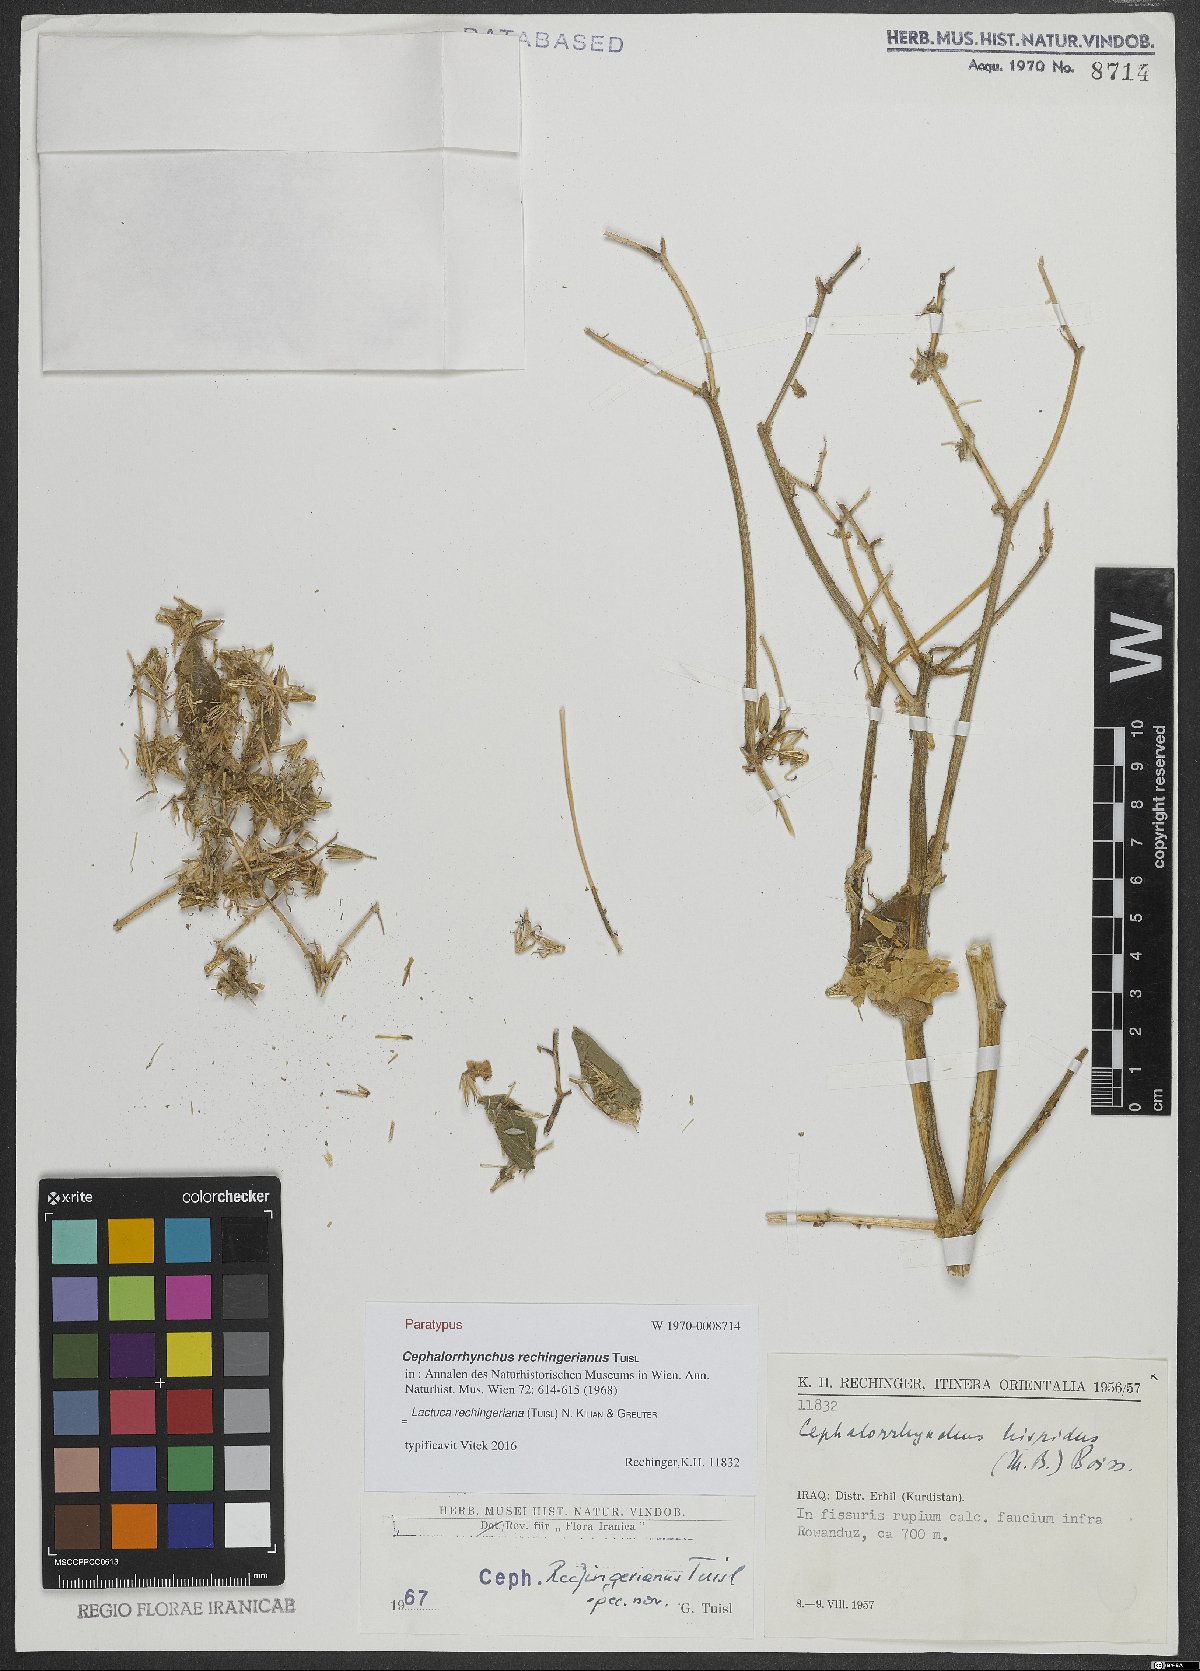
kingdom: Plantae
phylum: Tracheophyta
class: Magnoliopsida
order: Asterales
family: Asteraceae
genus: Cicerbita
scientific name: Cicerbita rechingeriana
